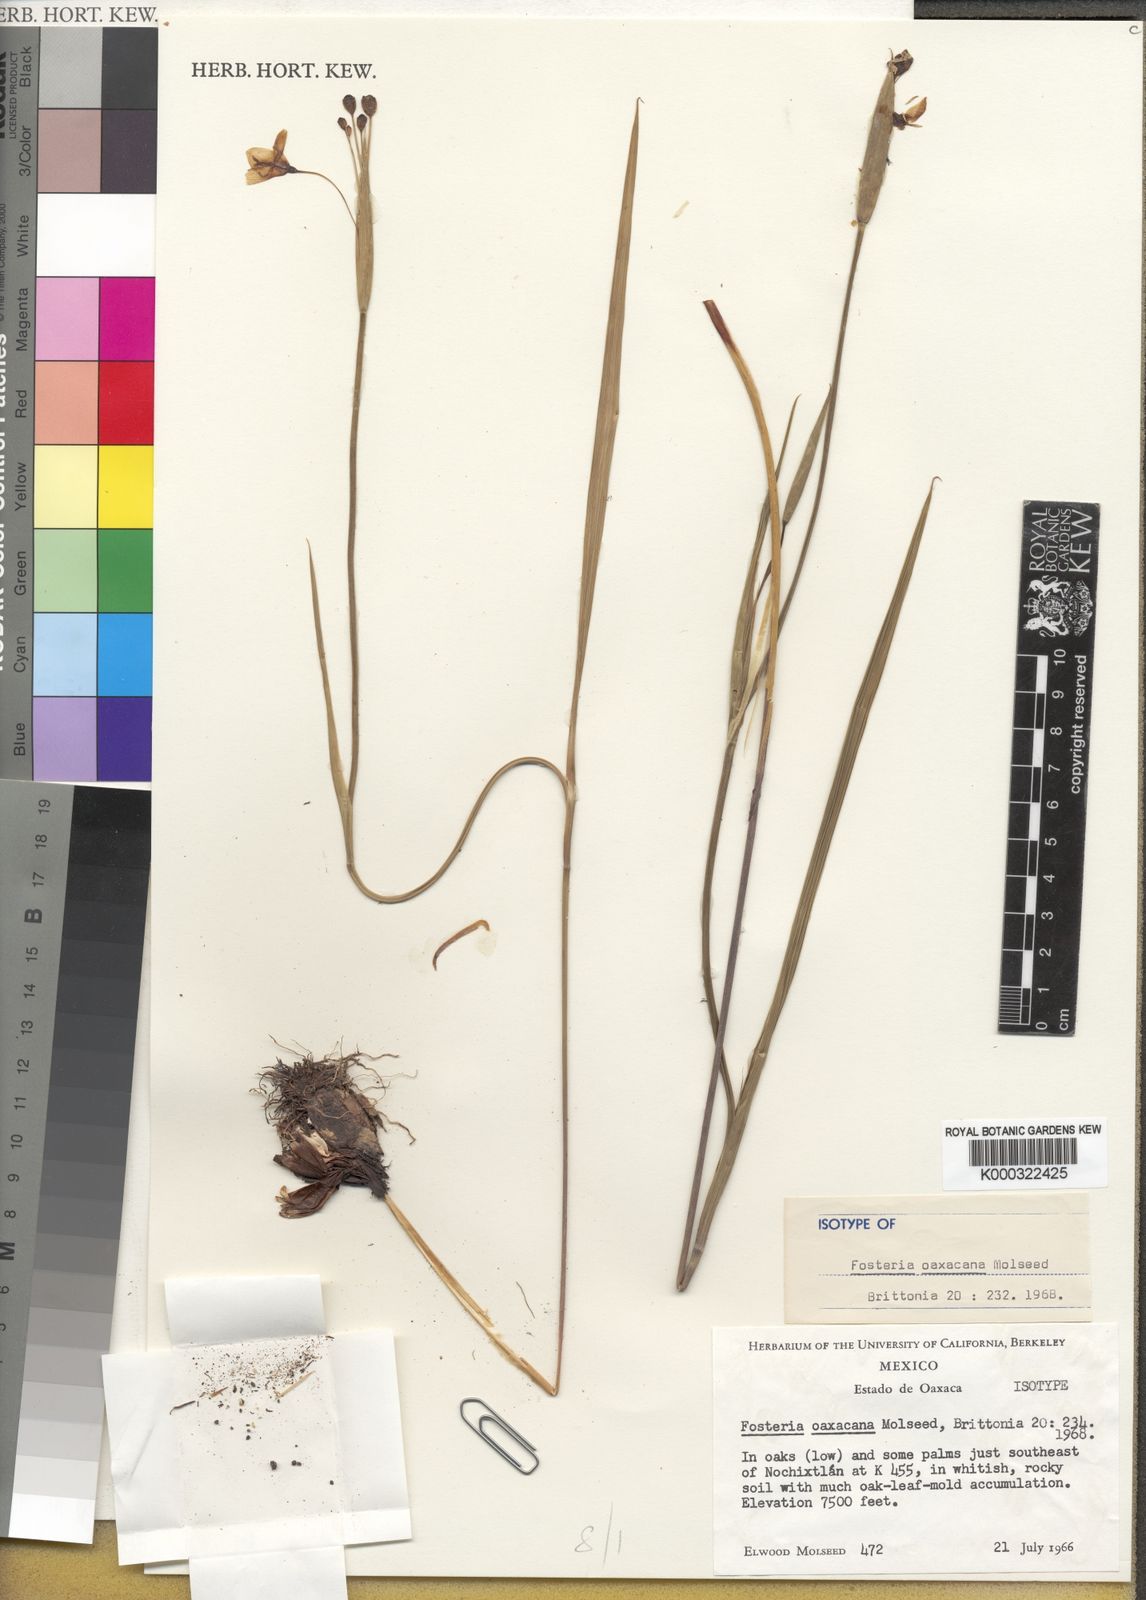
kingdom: Plantae
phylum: Tracheophyta
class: Liliopsida
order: Asparagales
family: Iridaceae
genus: Tigridia
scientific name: Tigridia oaxacana
